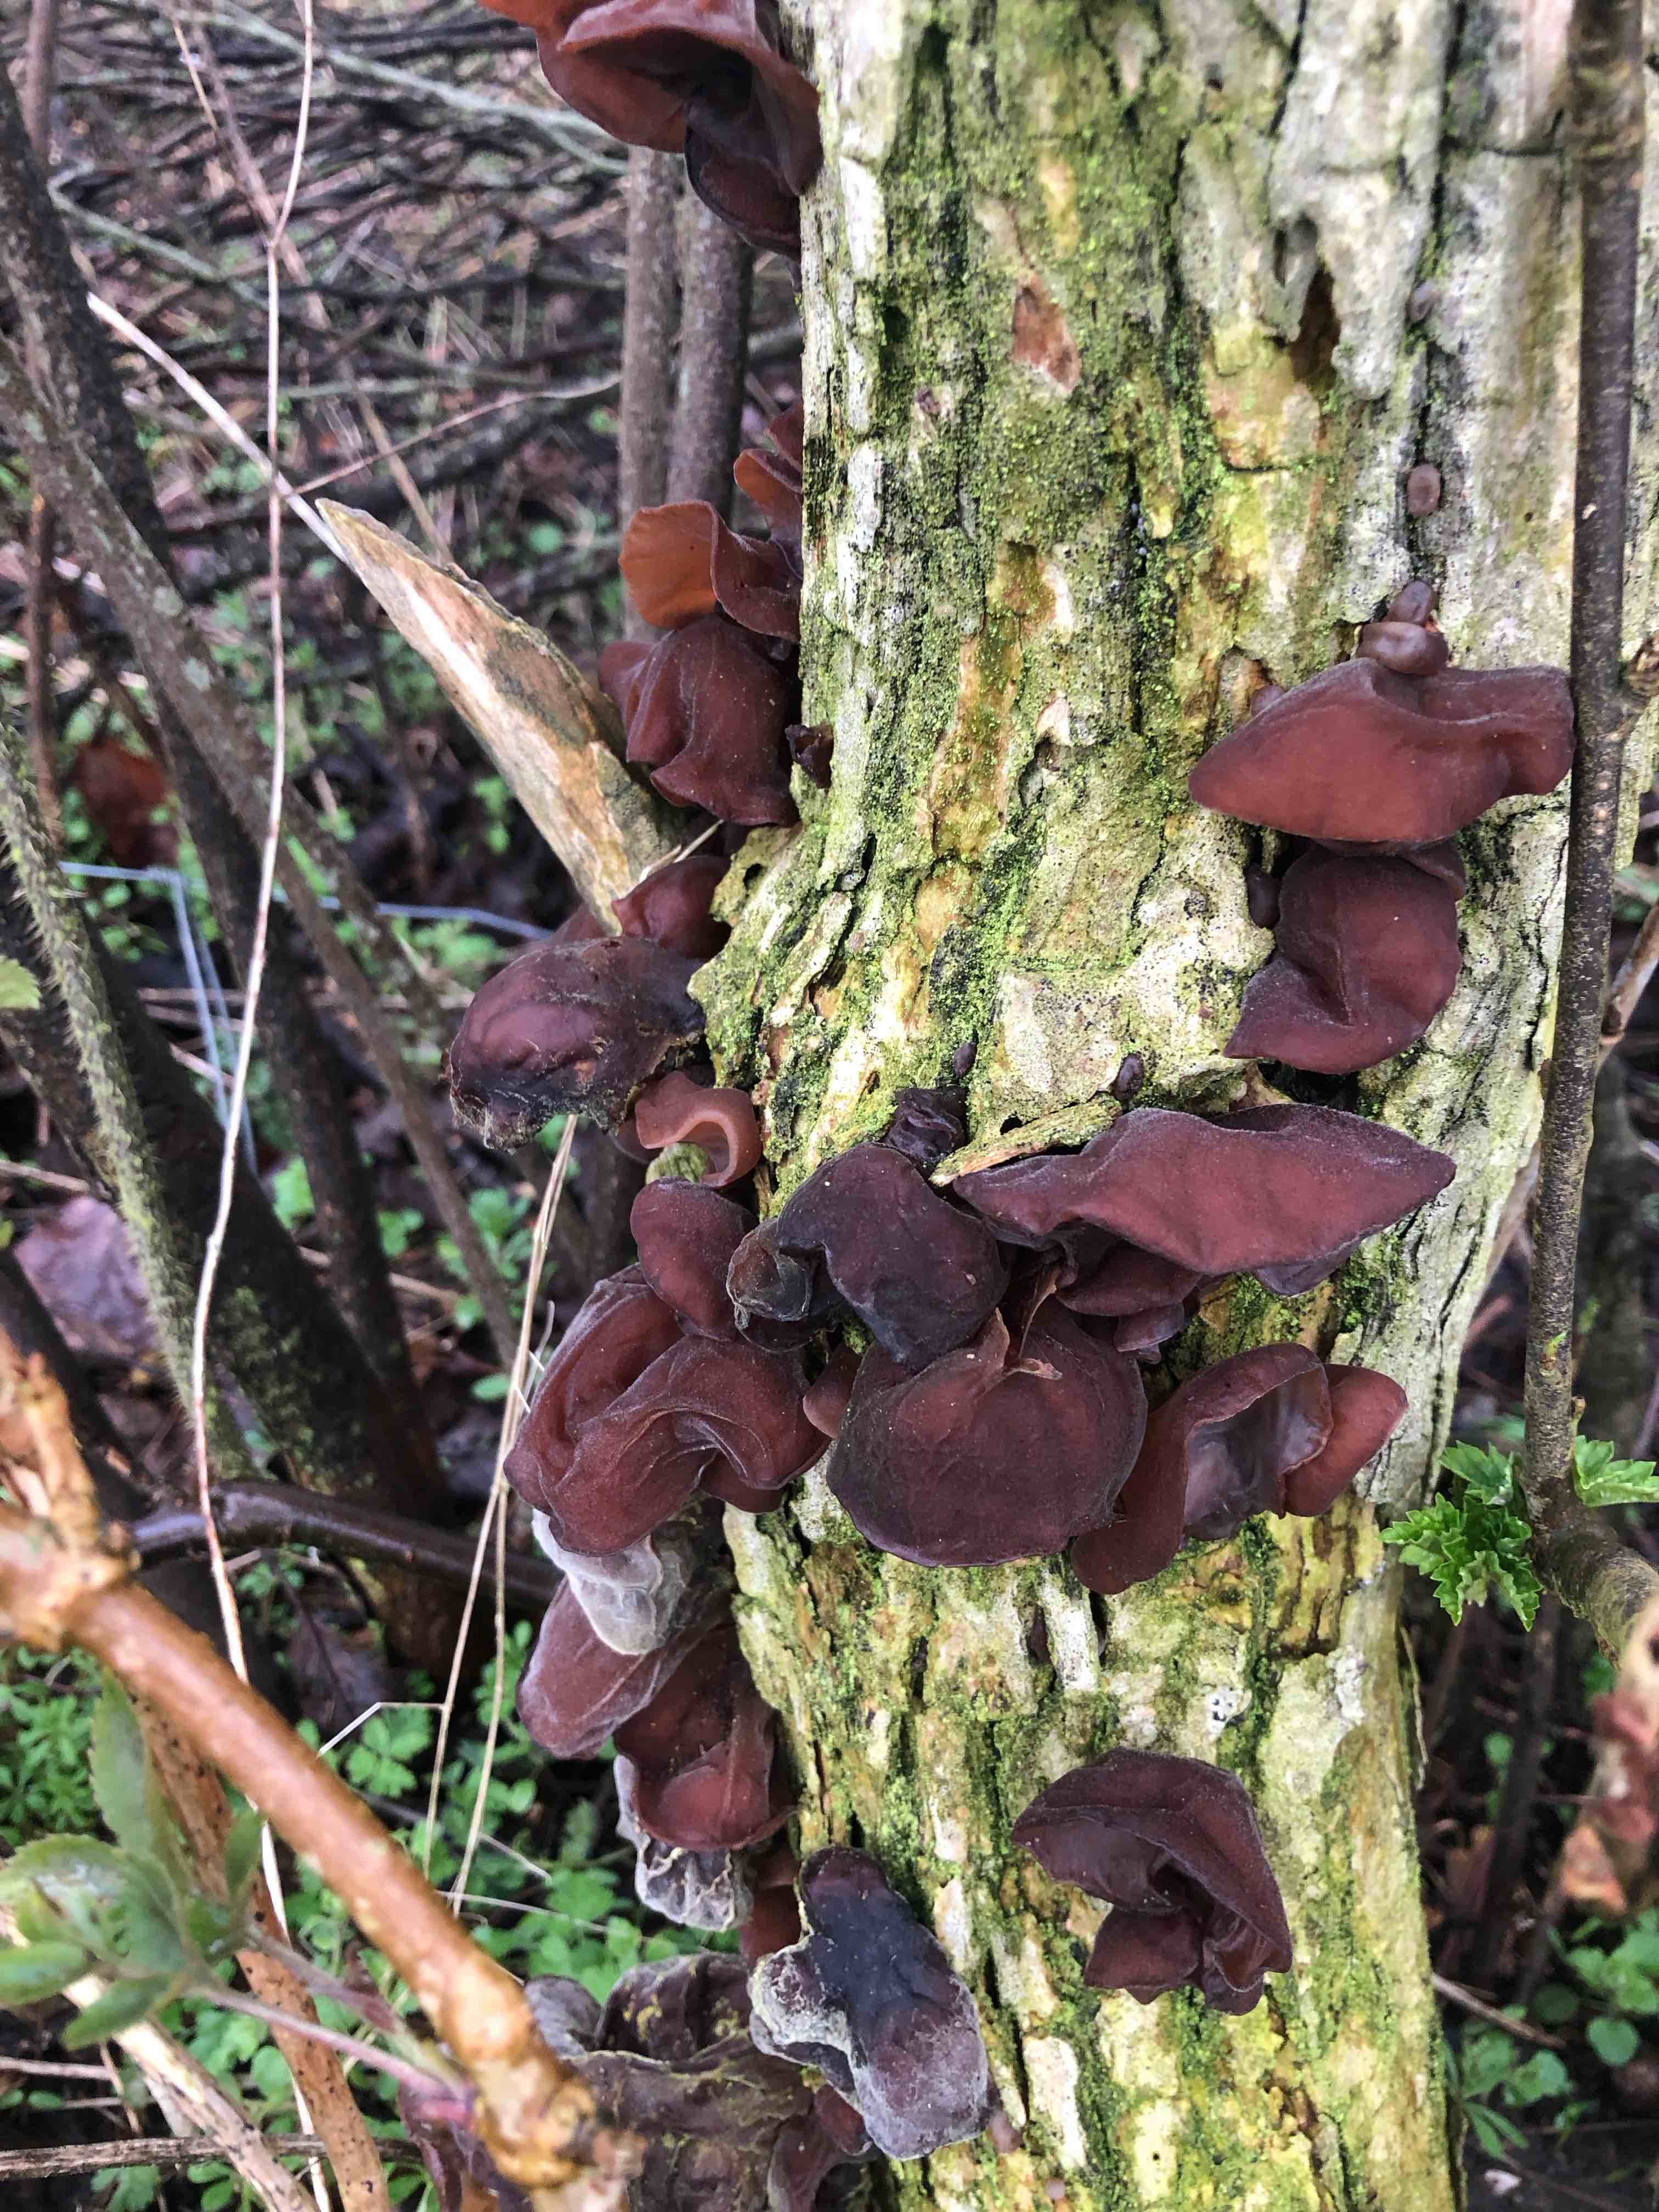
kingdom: Fungi
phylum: Basidiomycota
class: Agaricomycetes
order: Auriculariales
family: Auriculariaceae
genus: Auricularia
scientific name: Auricularia auricula-judae
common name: almindelig judasøre
